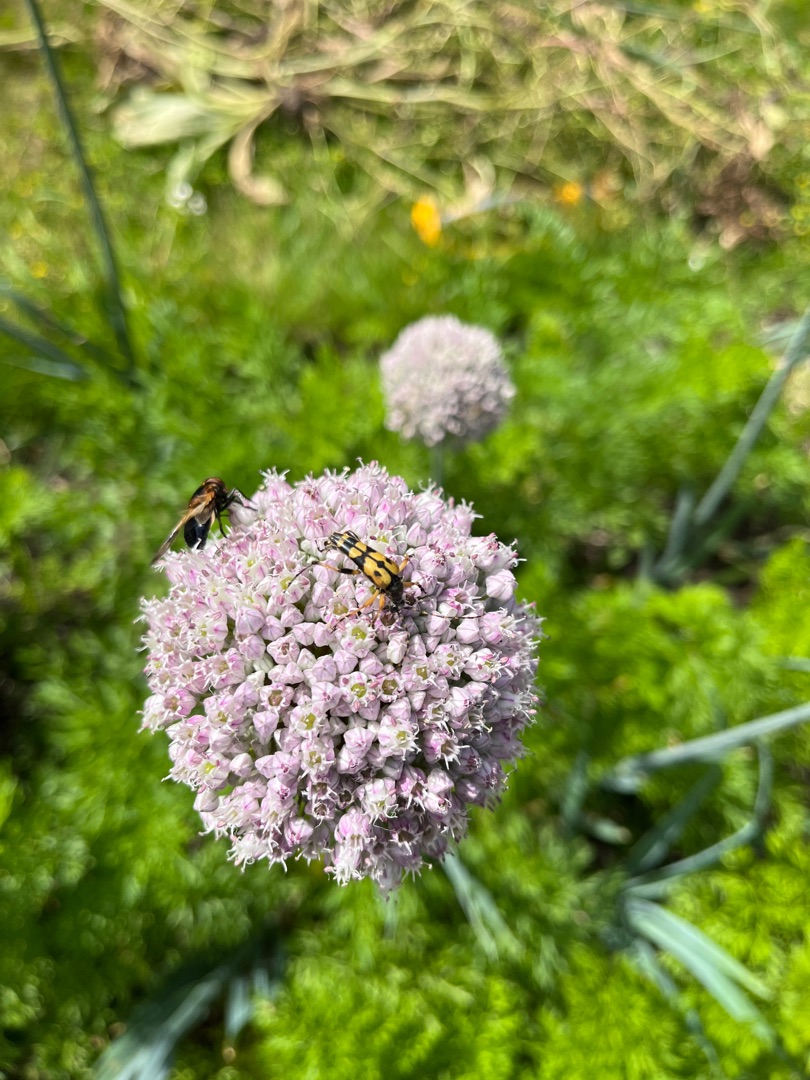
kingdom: Animalia
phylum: Arthropoda
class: Insecta
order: Coleoptera
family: Cerambycidae
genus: Rutpela
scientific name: Rutpela maculata
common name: Sydlig blomsterbuk
